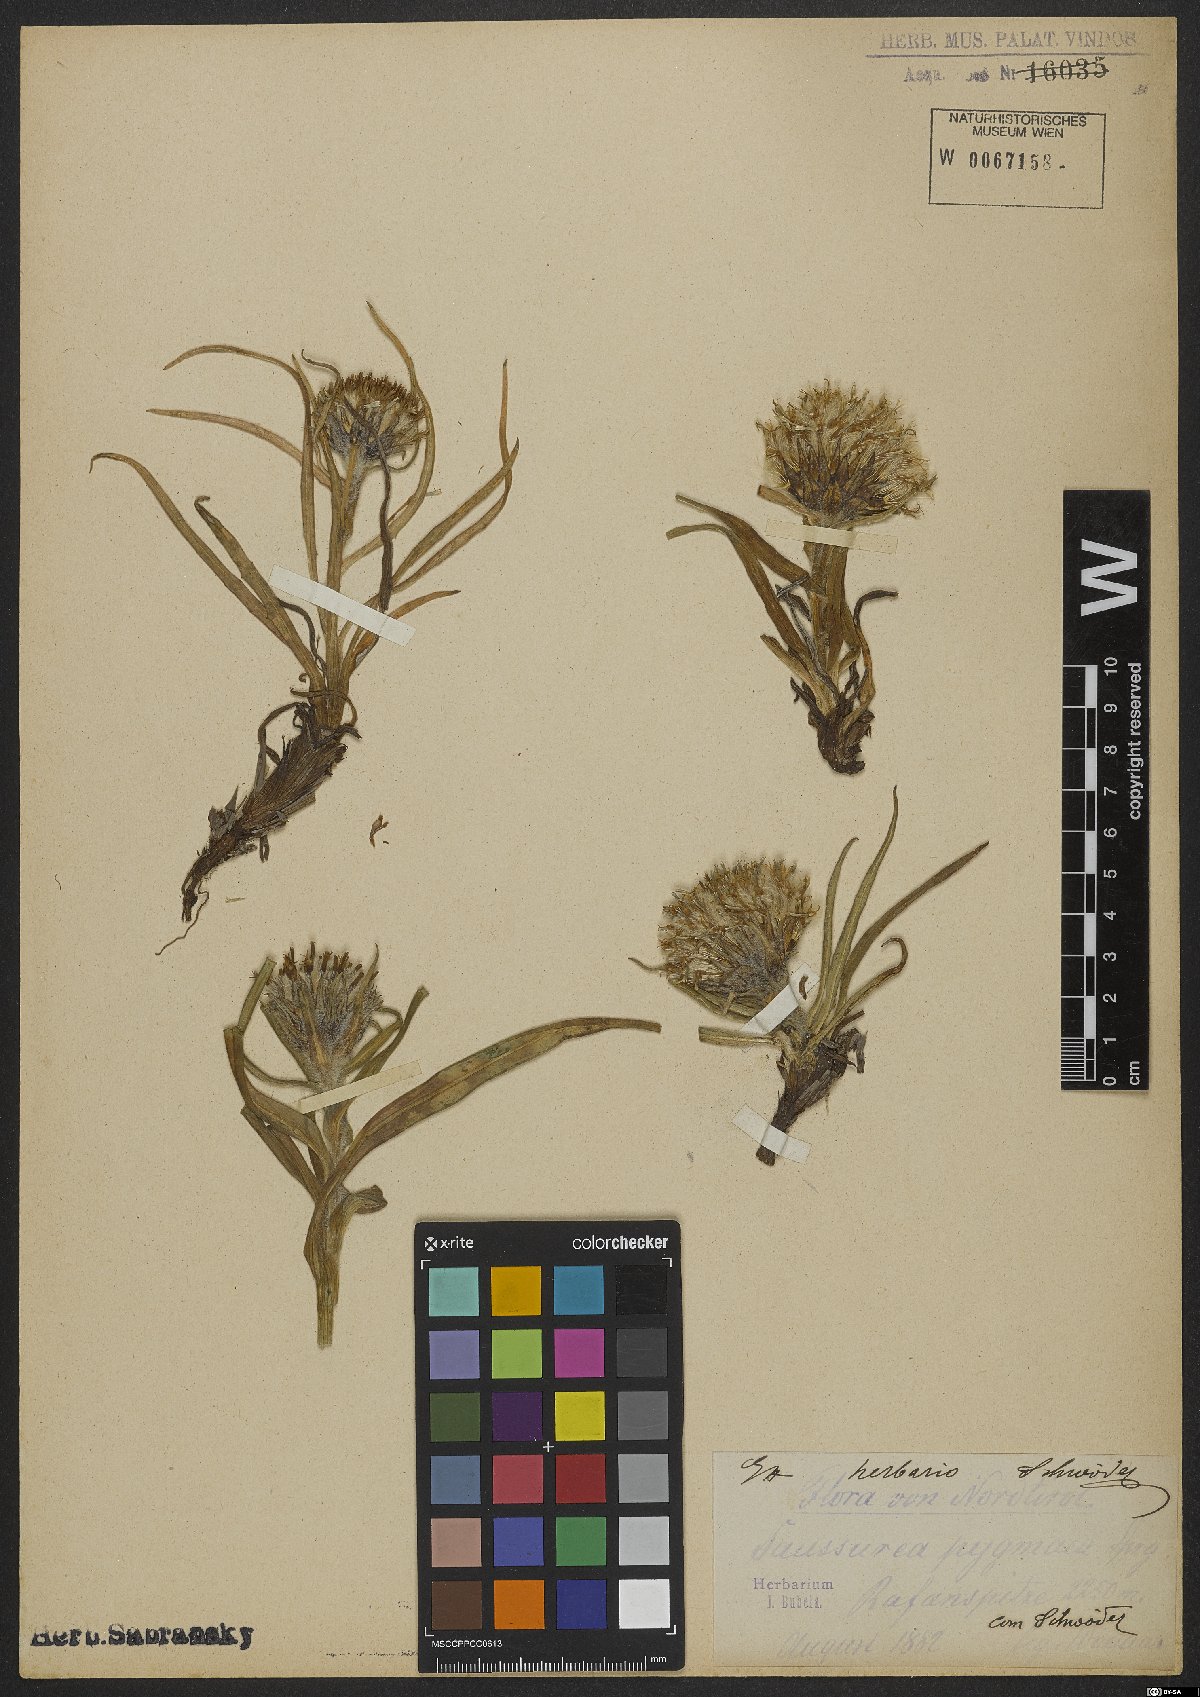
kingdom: Plantae
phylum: Tracheophyta
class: Magnoliopsida
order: Asterales
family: Asteraceae
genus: Saussurea
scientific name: Saussurea pygmaea
